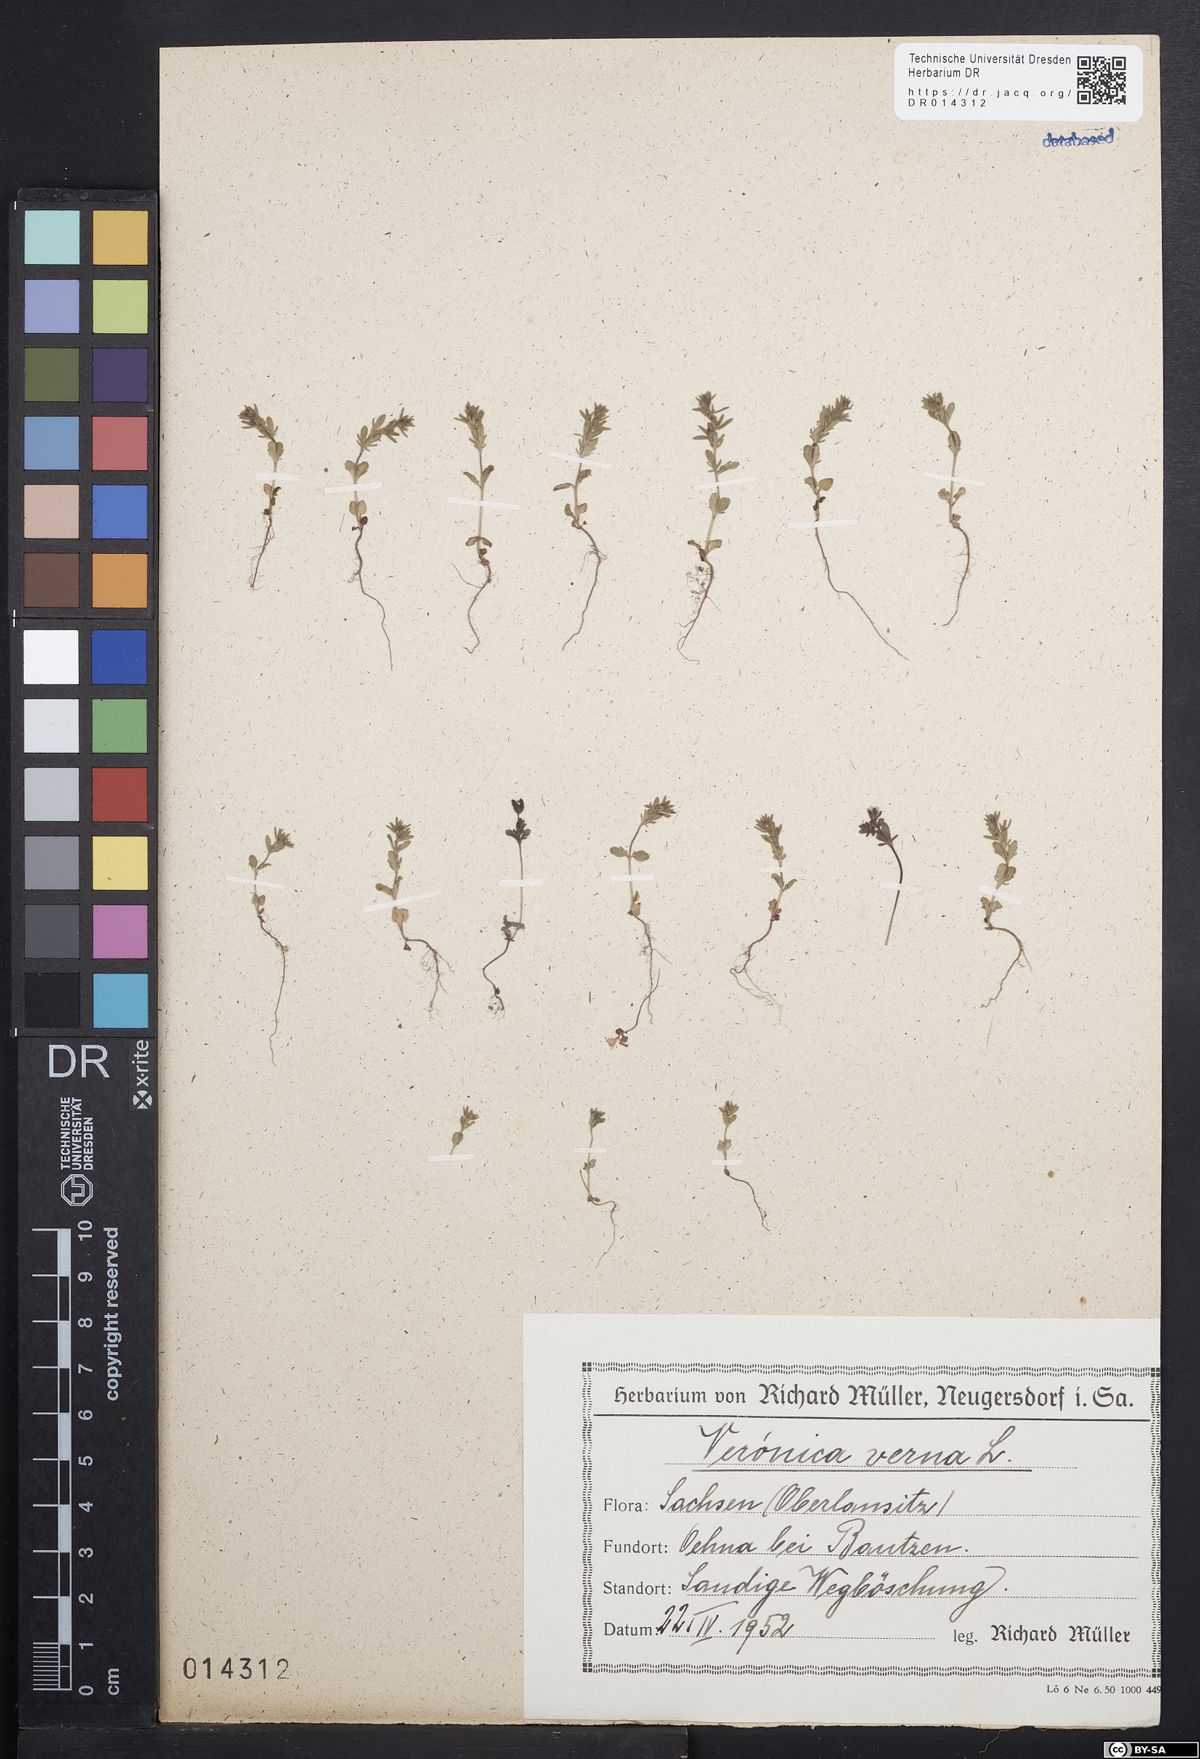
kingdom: Plantae
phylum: Tracheophyta
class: Magnoliopsida
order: Lamiales
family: Plantaginaceae
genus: Veronica
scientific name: Veronica verna
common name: Spring speedwell
